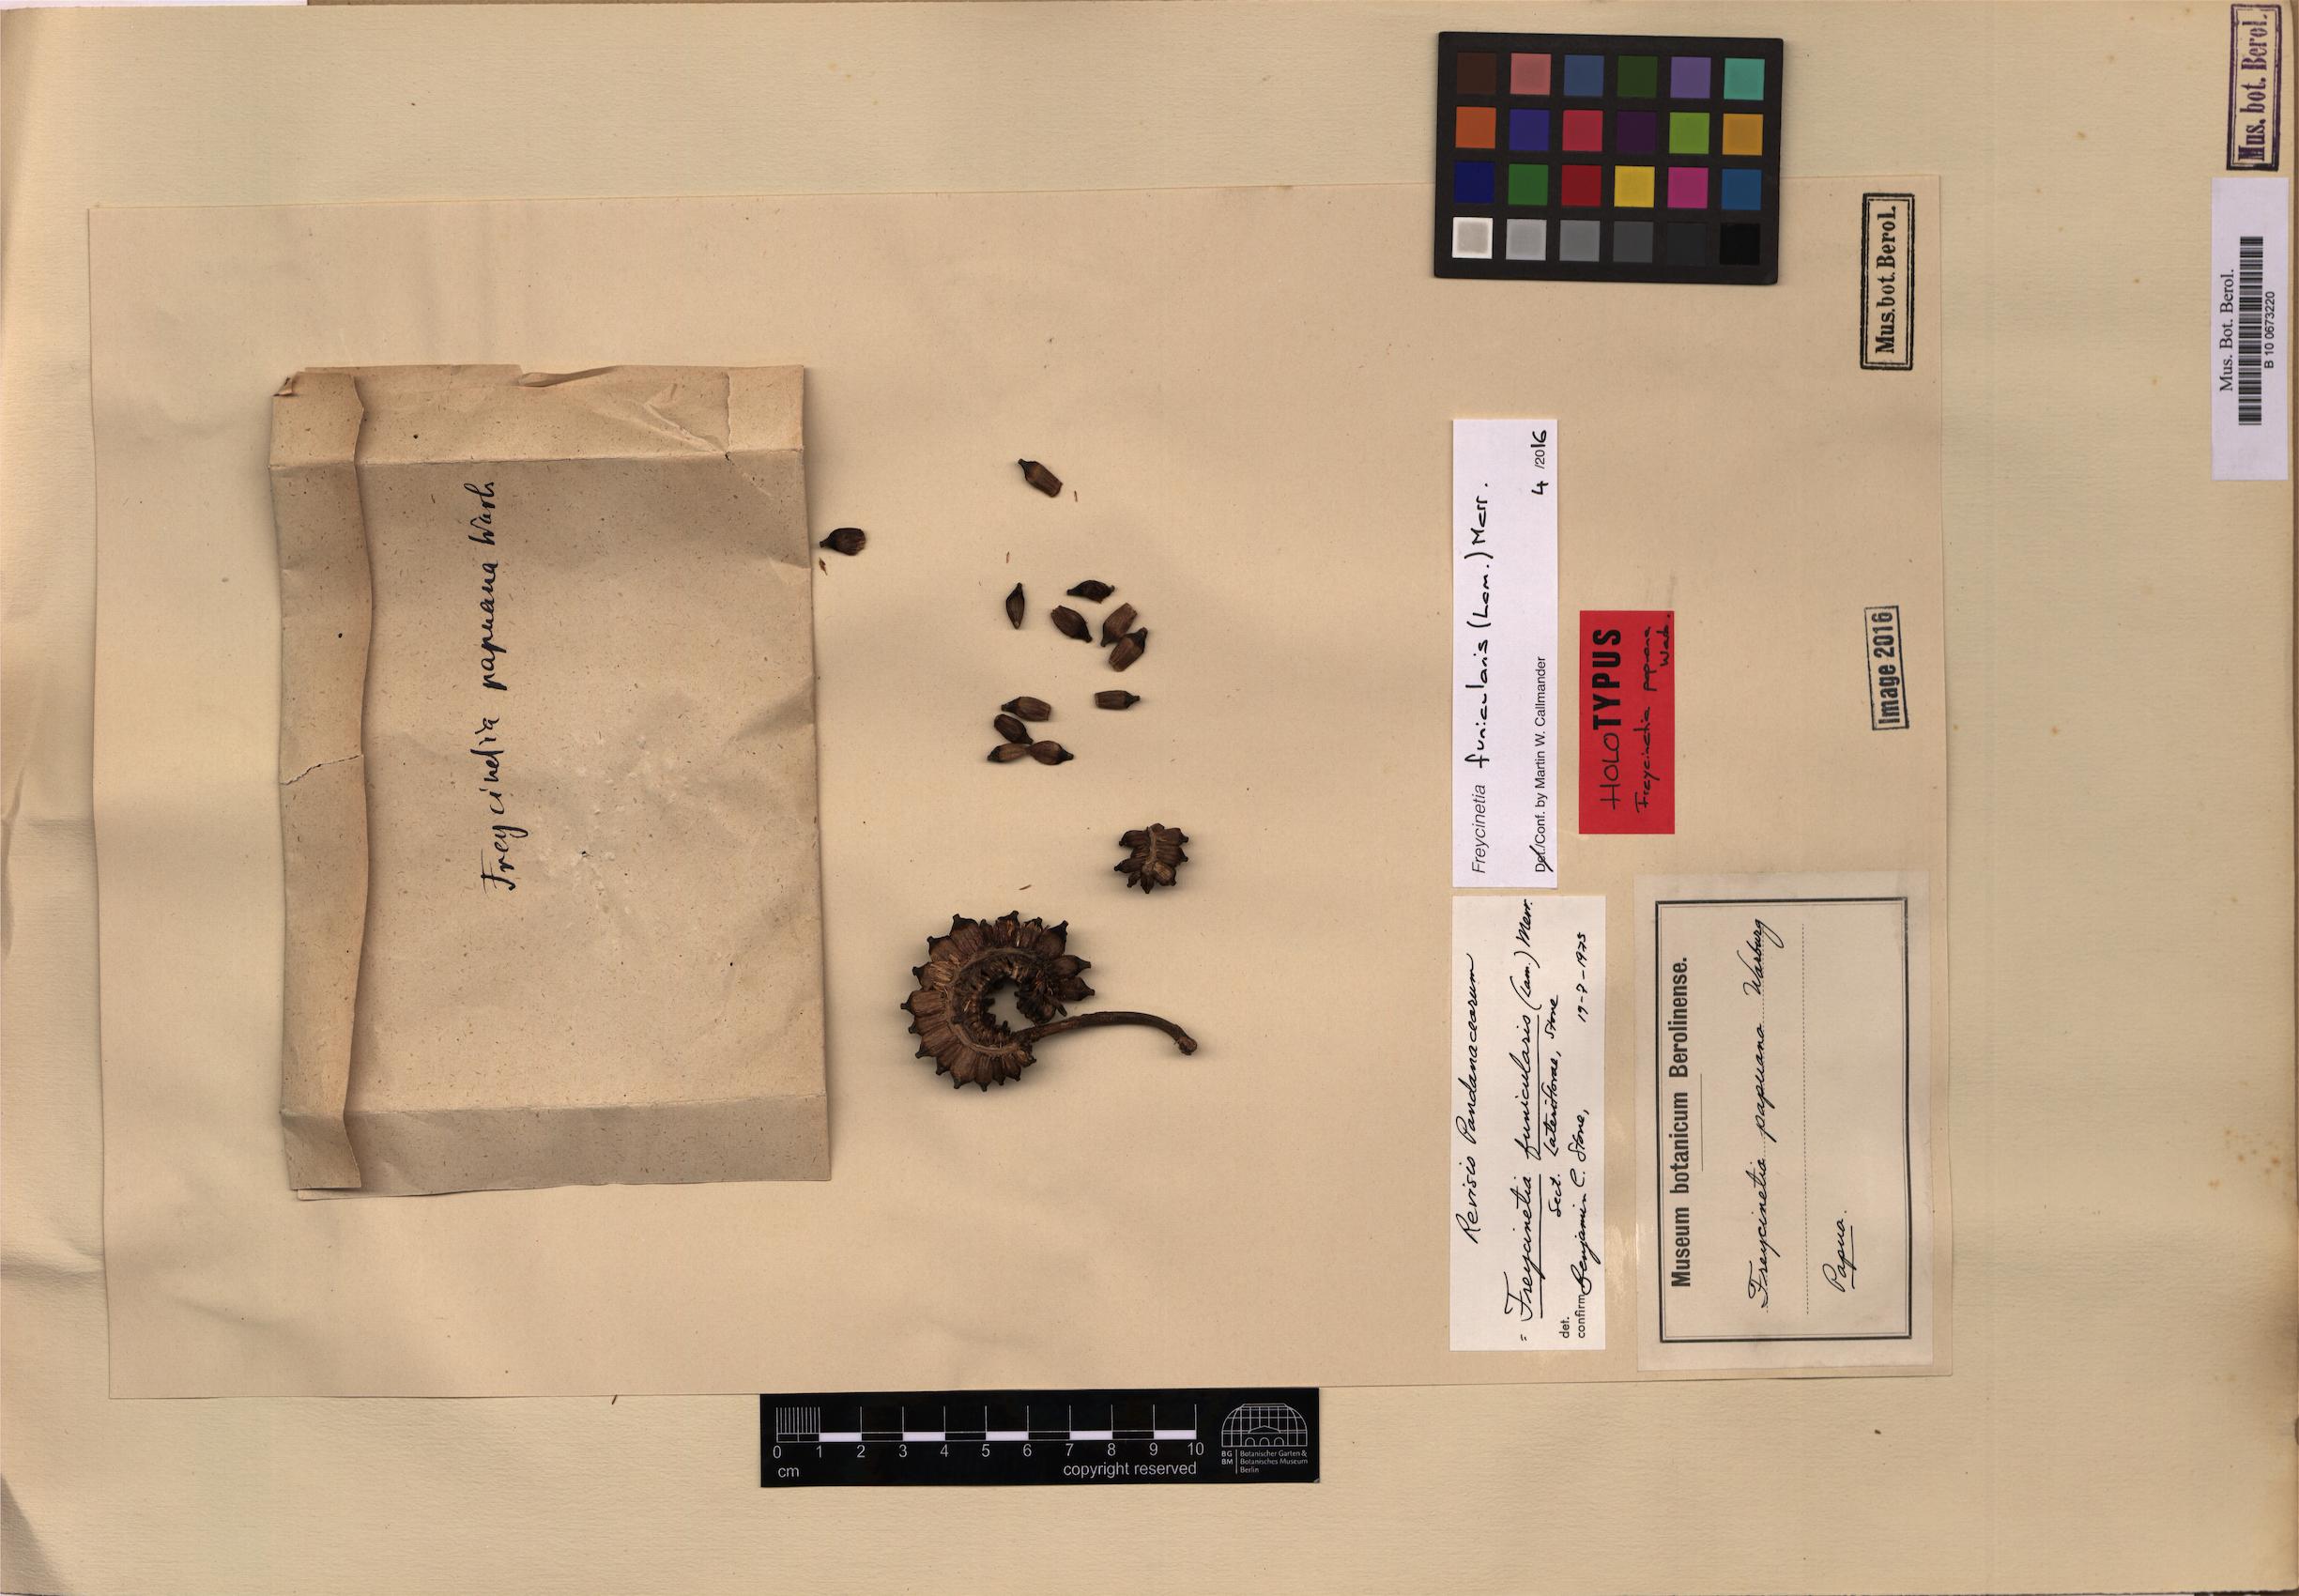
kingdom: Plantae
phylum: Tracheophyta
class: Liliopsida
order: Pandanales
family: Pandanaceae
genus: Freycinetia
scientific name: Freycinetia funicularis
